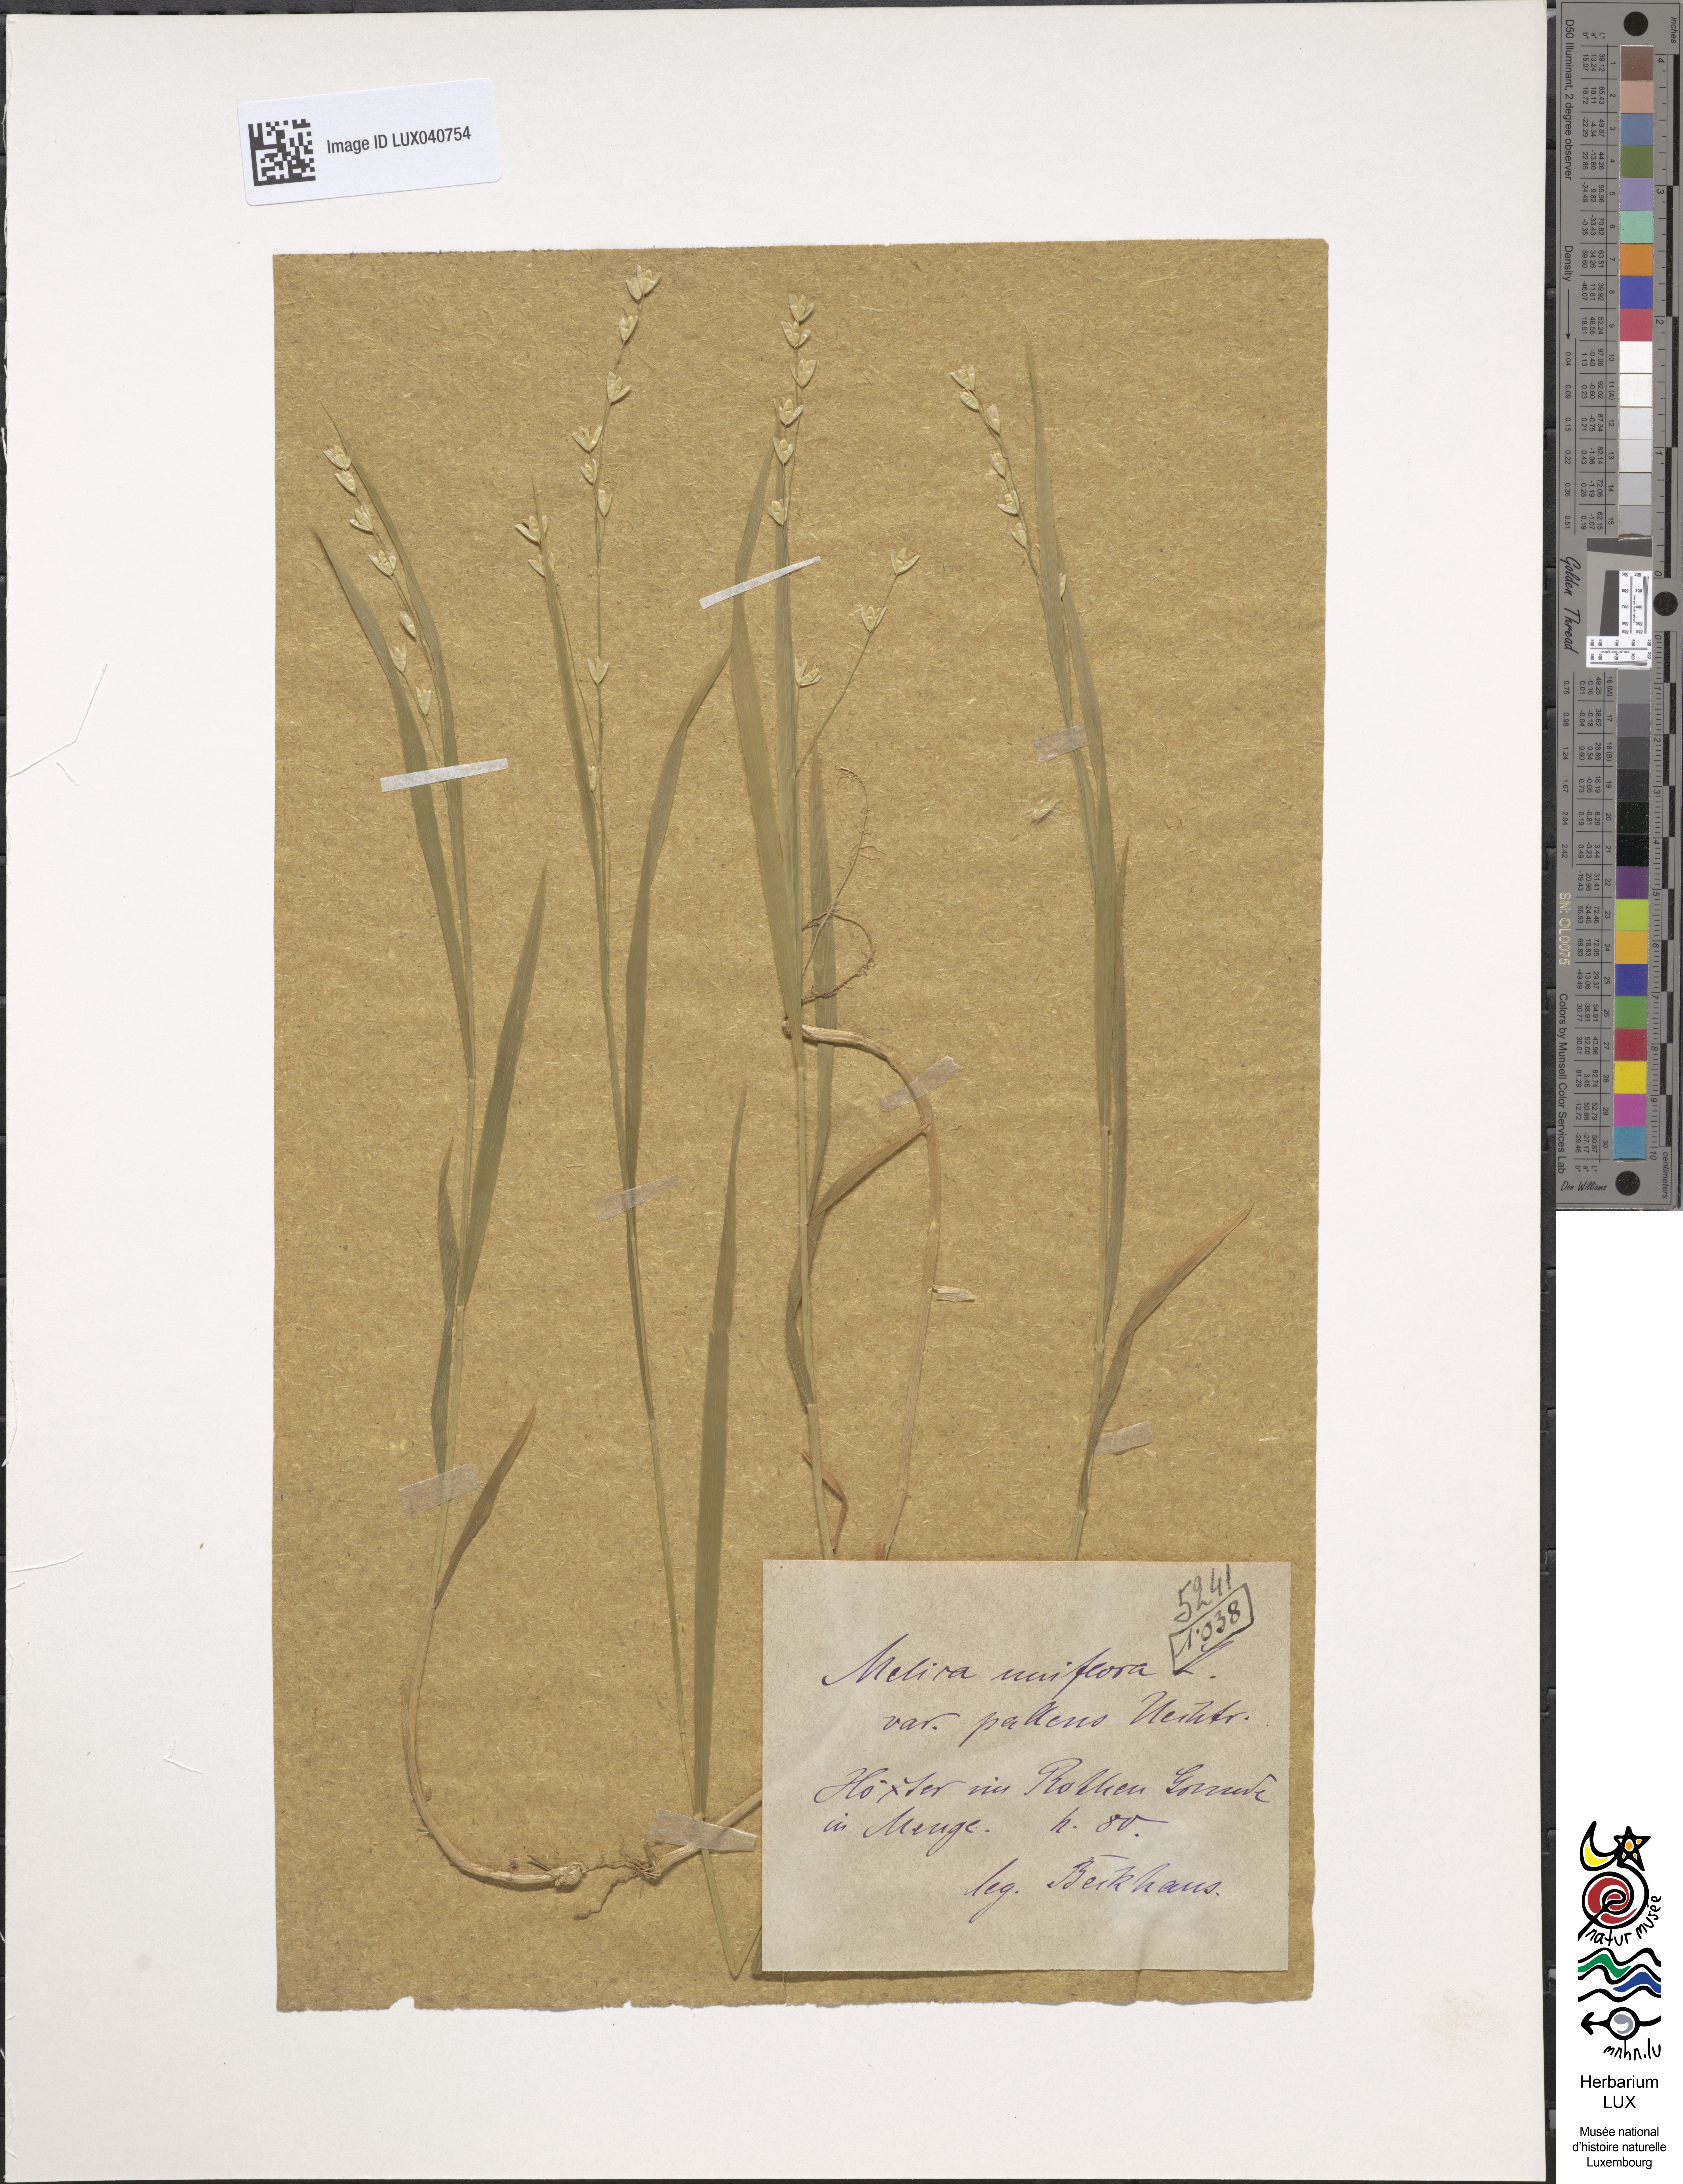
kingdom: Plantae
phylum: Tracheophyta
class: Liliopsida
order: Poales
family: Poaceae
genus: Melica
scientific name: Melica uniflora
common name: Wood melick
